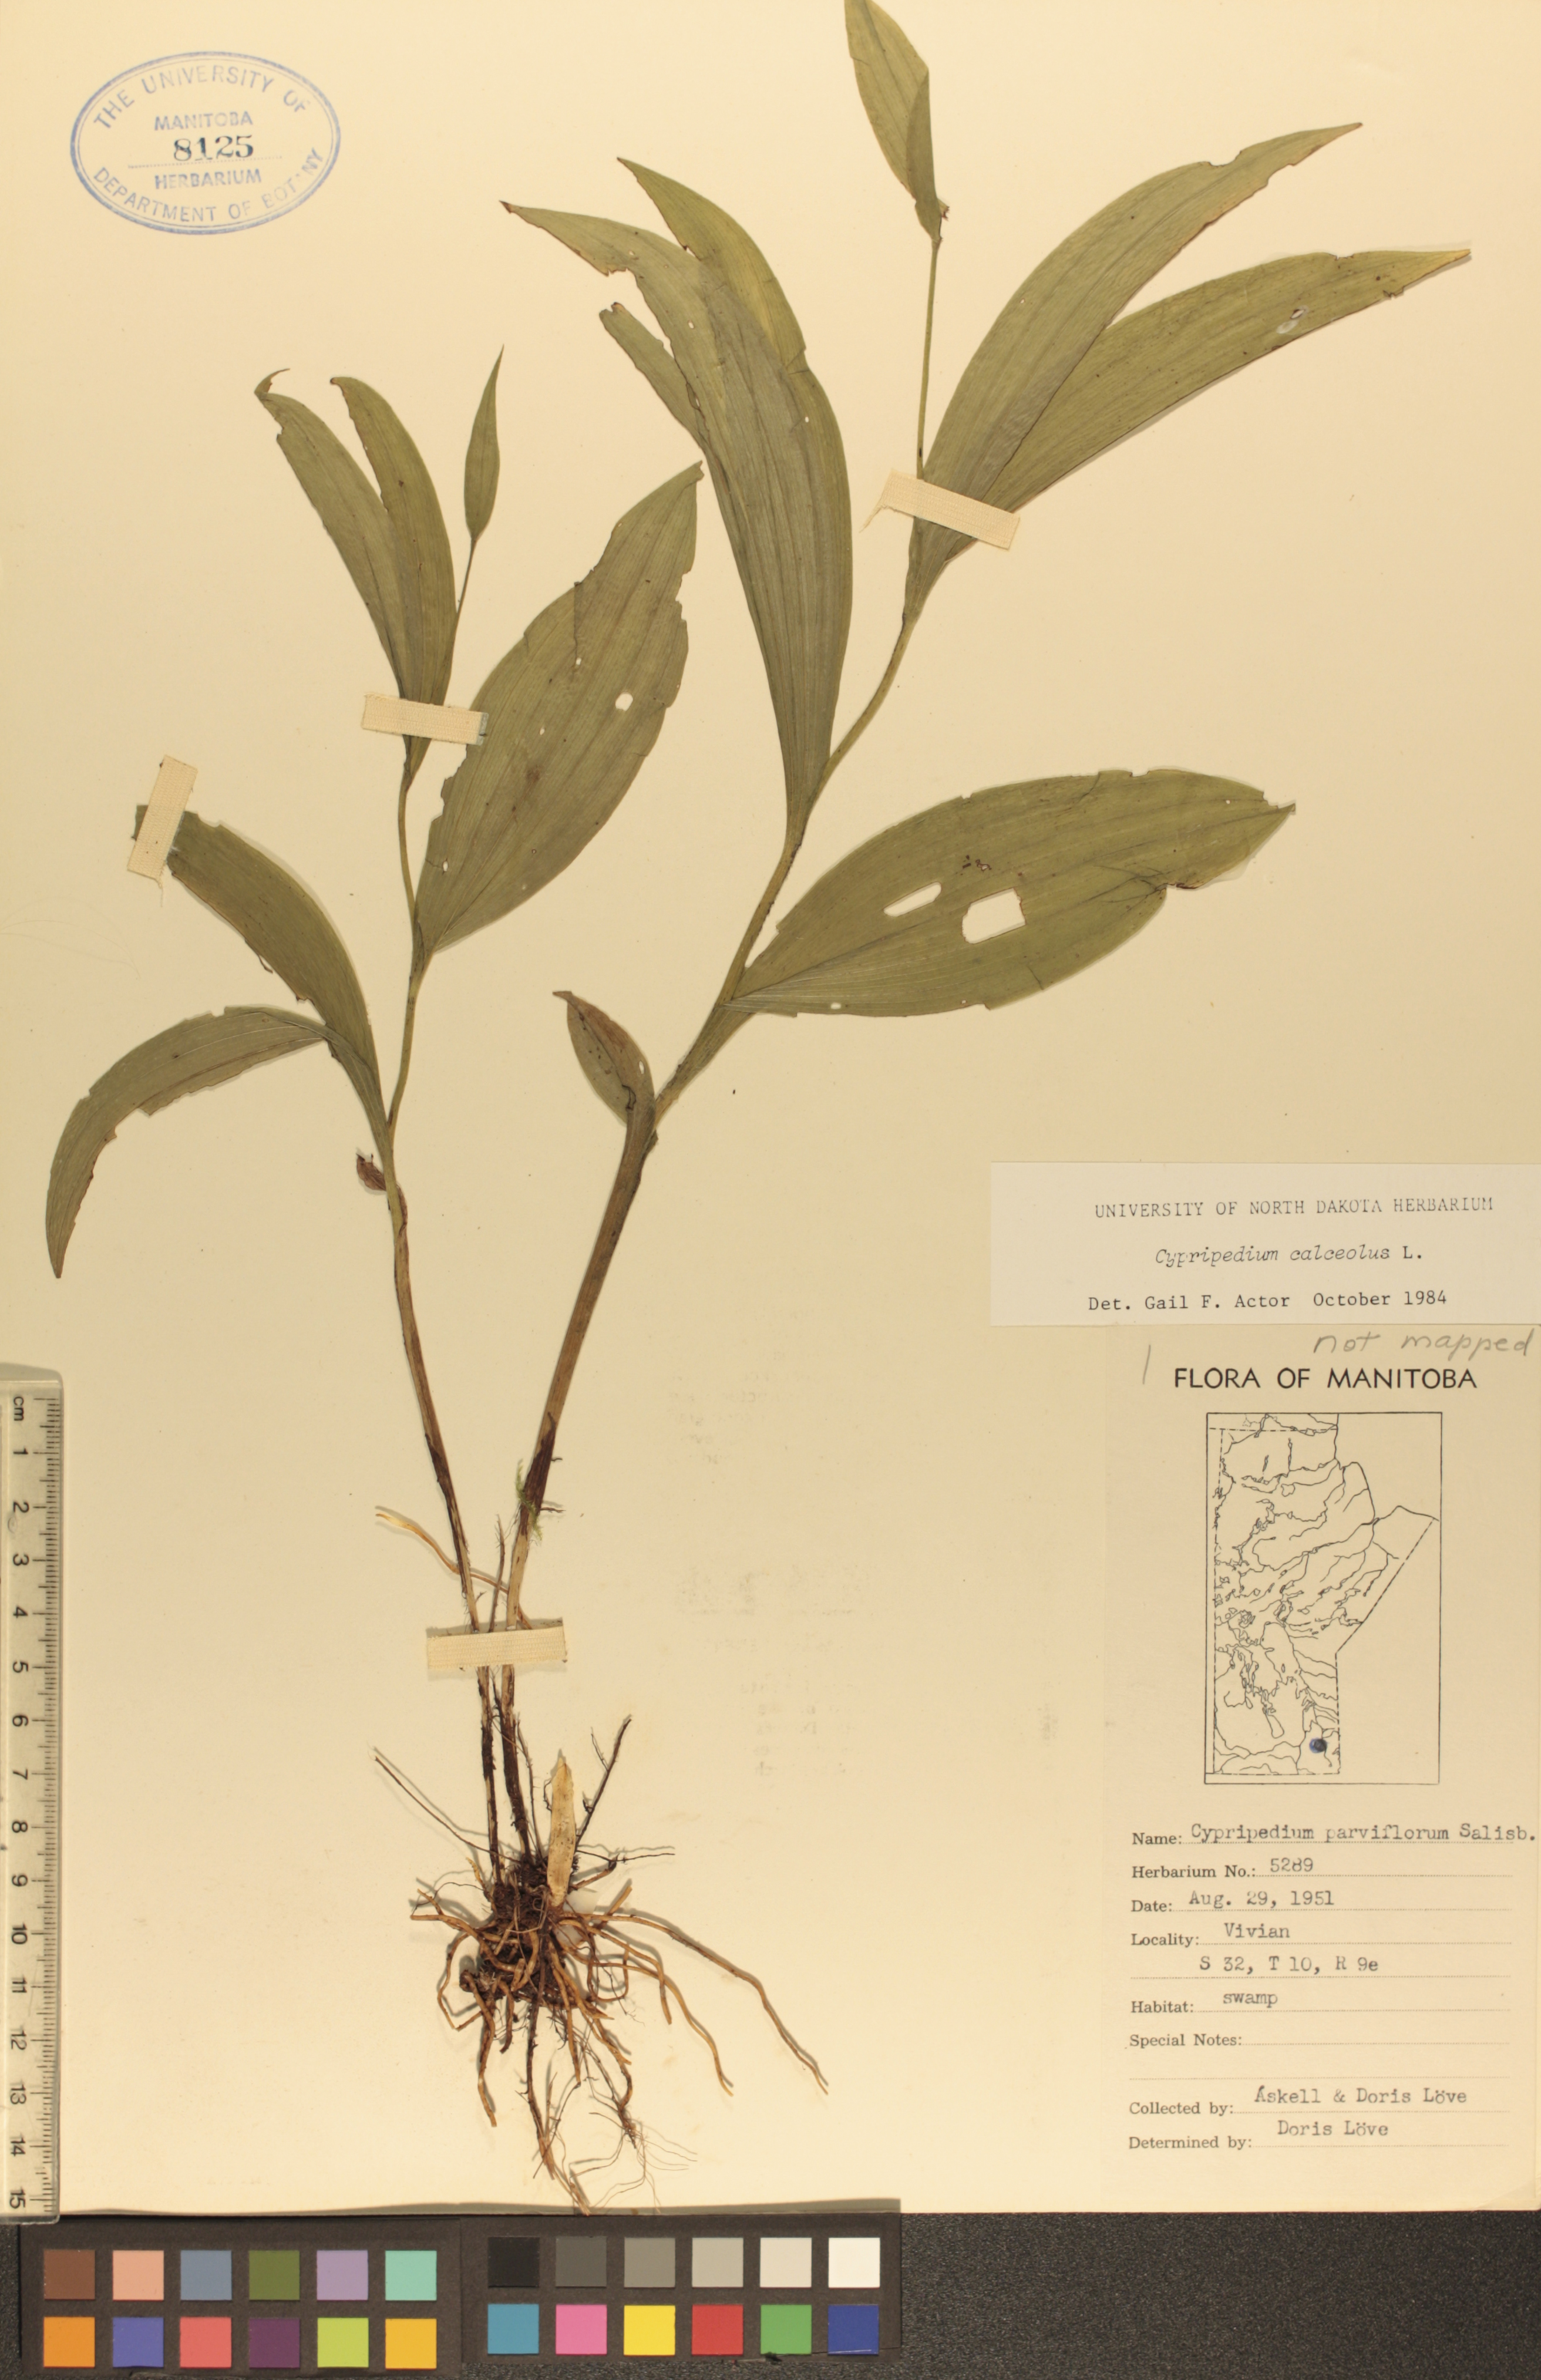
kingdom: Plantae
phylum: Tracheophyta
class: Liliopsida
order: Asparagales
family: Orchidaceae
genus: Cypripedium
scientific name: Cypripedium parviflorum
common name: American yellow lady's-slipper
